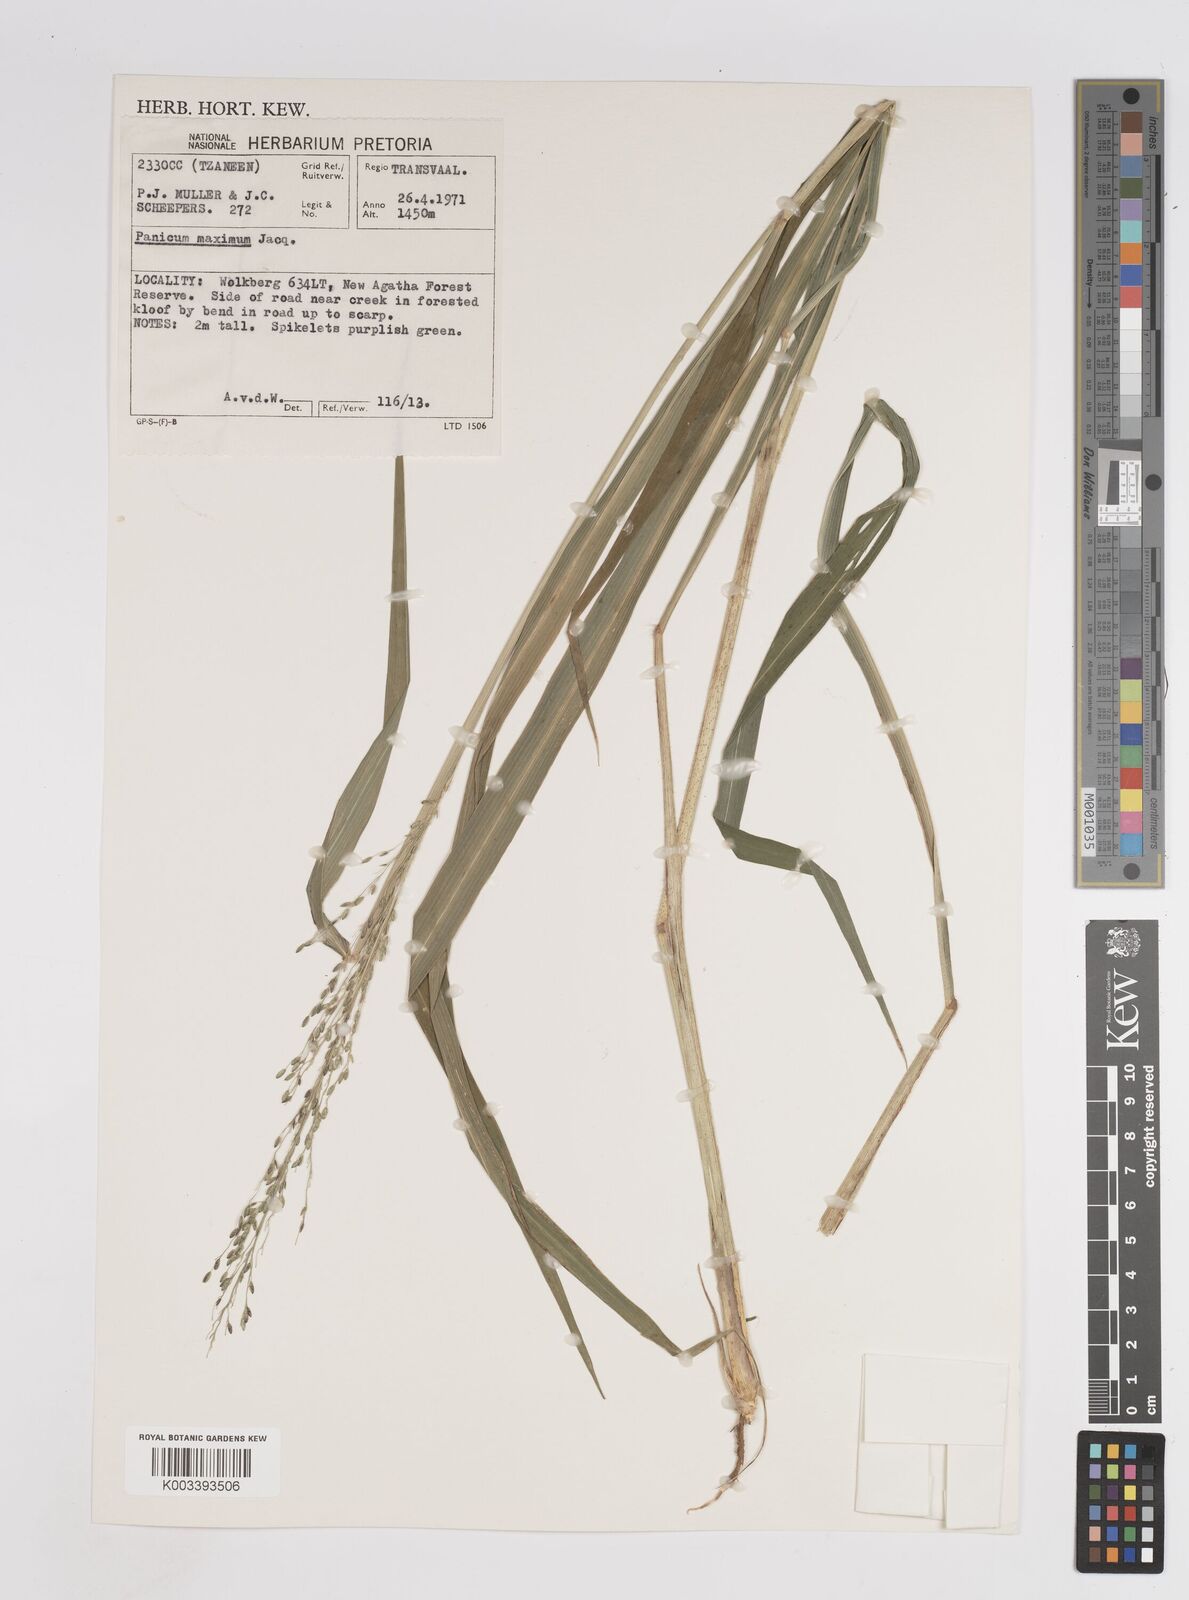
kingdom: Plantae
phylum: Tracheophyta
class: Liliopsida
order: Poales
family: Poaceae
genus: Megathyrsus
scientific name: Megathyrsus maximus
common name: Guineagrass
